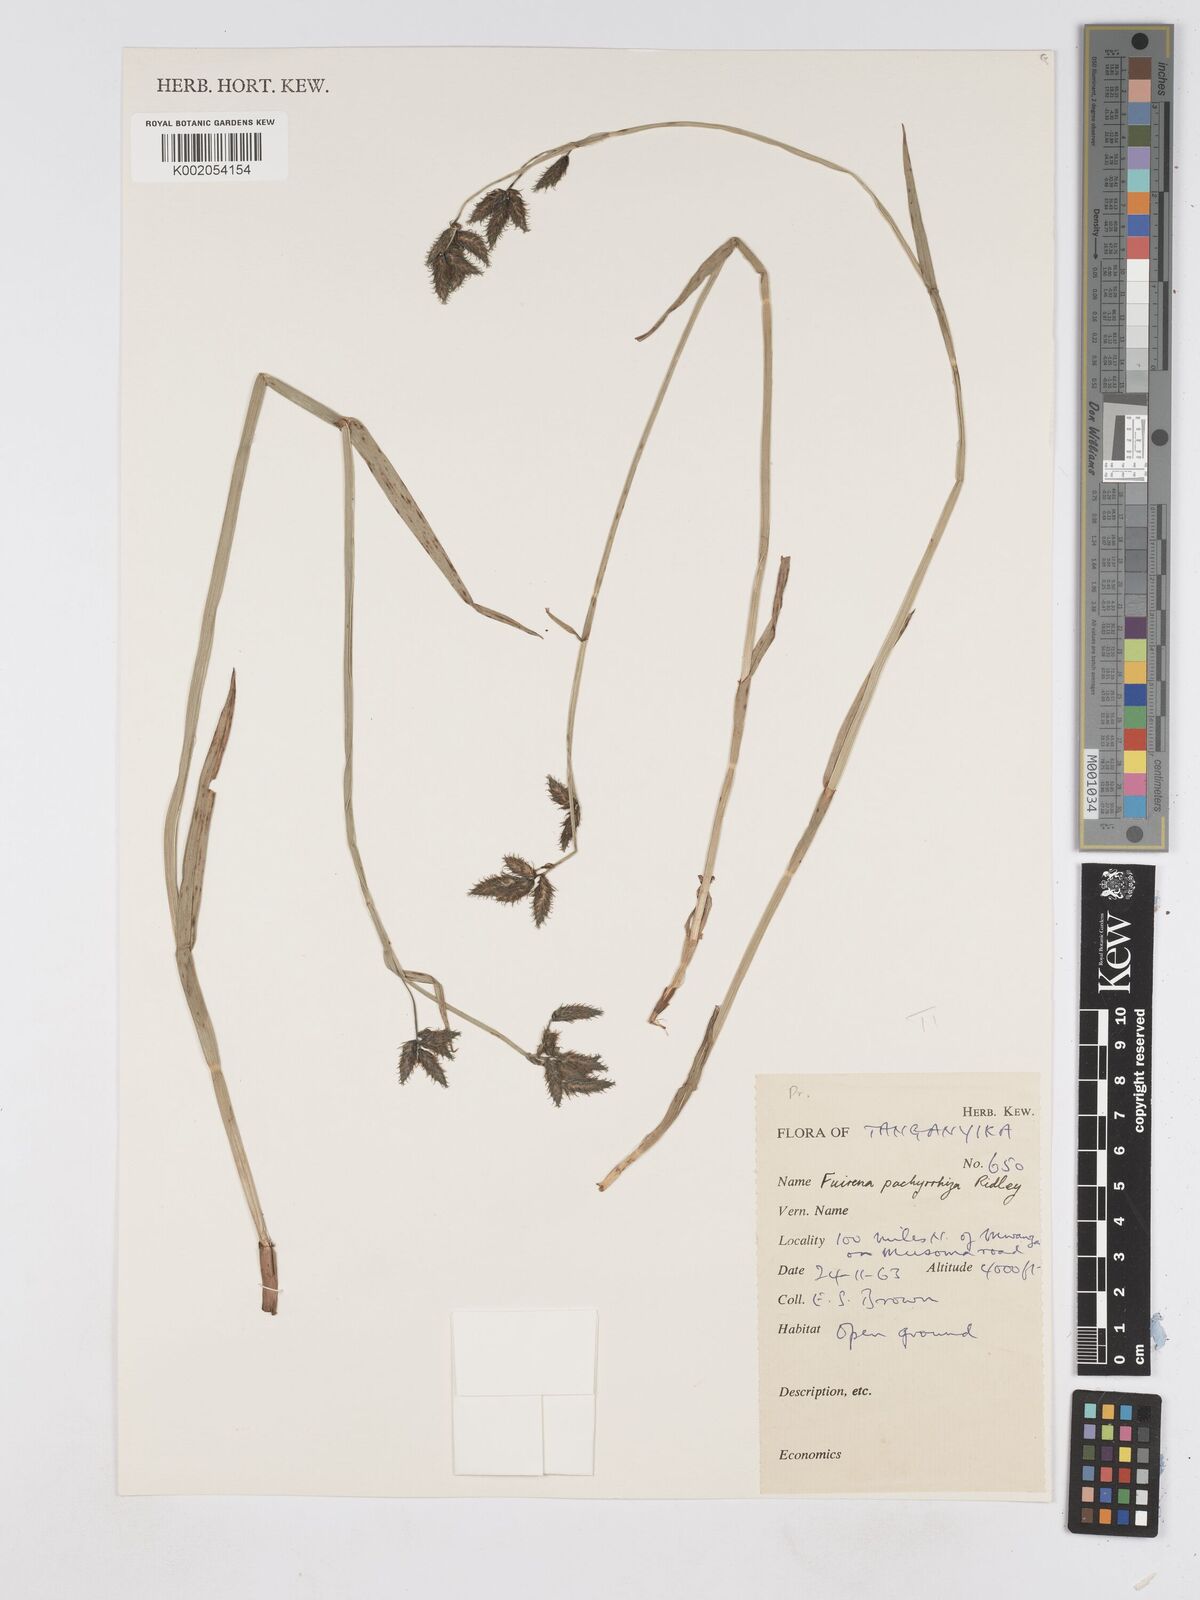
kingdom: Plantae
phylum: Tracheophyta
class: Liliopsida
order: Poales
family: Cyperaceae
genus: Fuirena
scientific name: Fuirena pachyrrhiza
